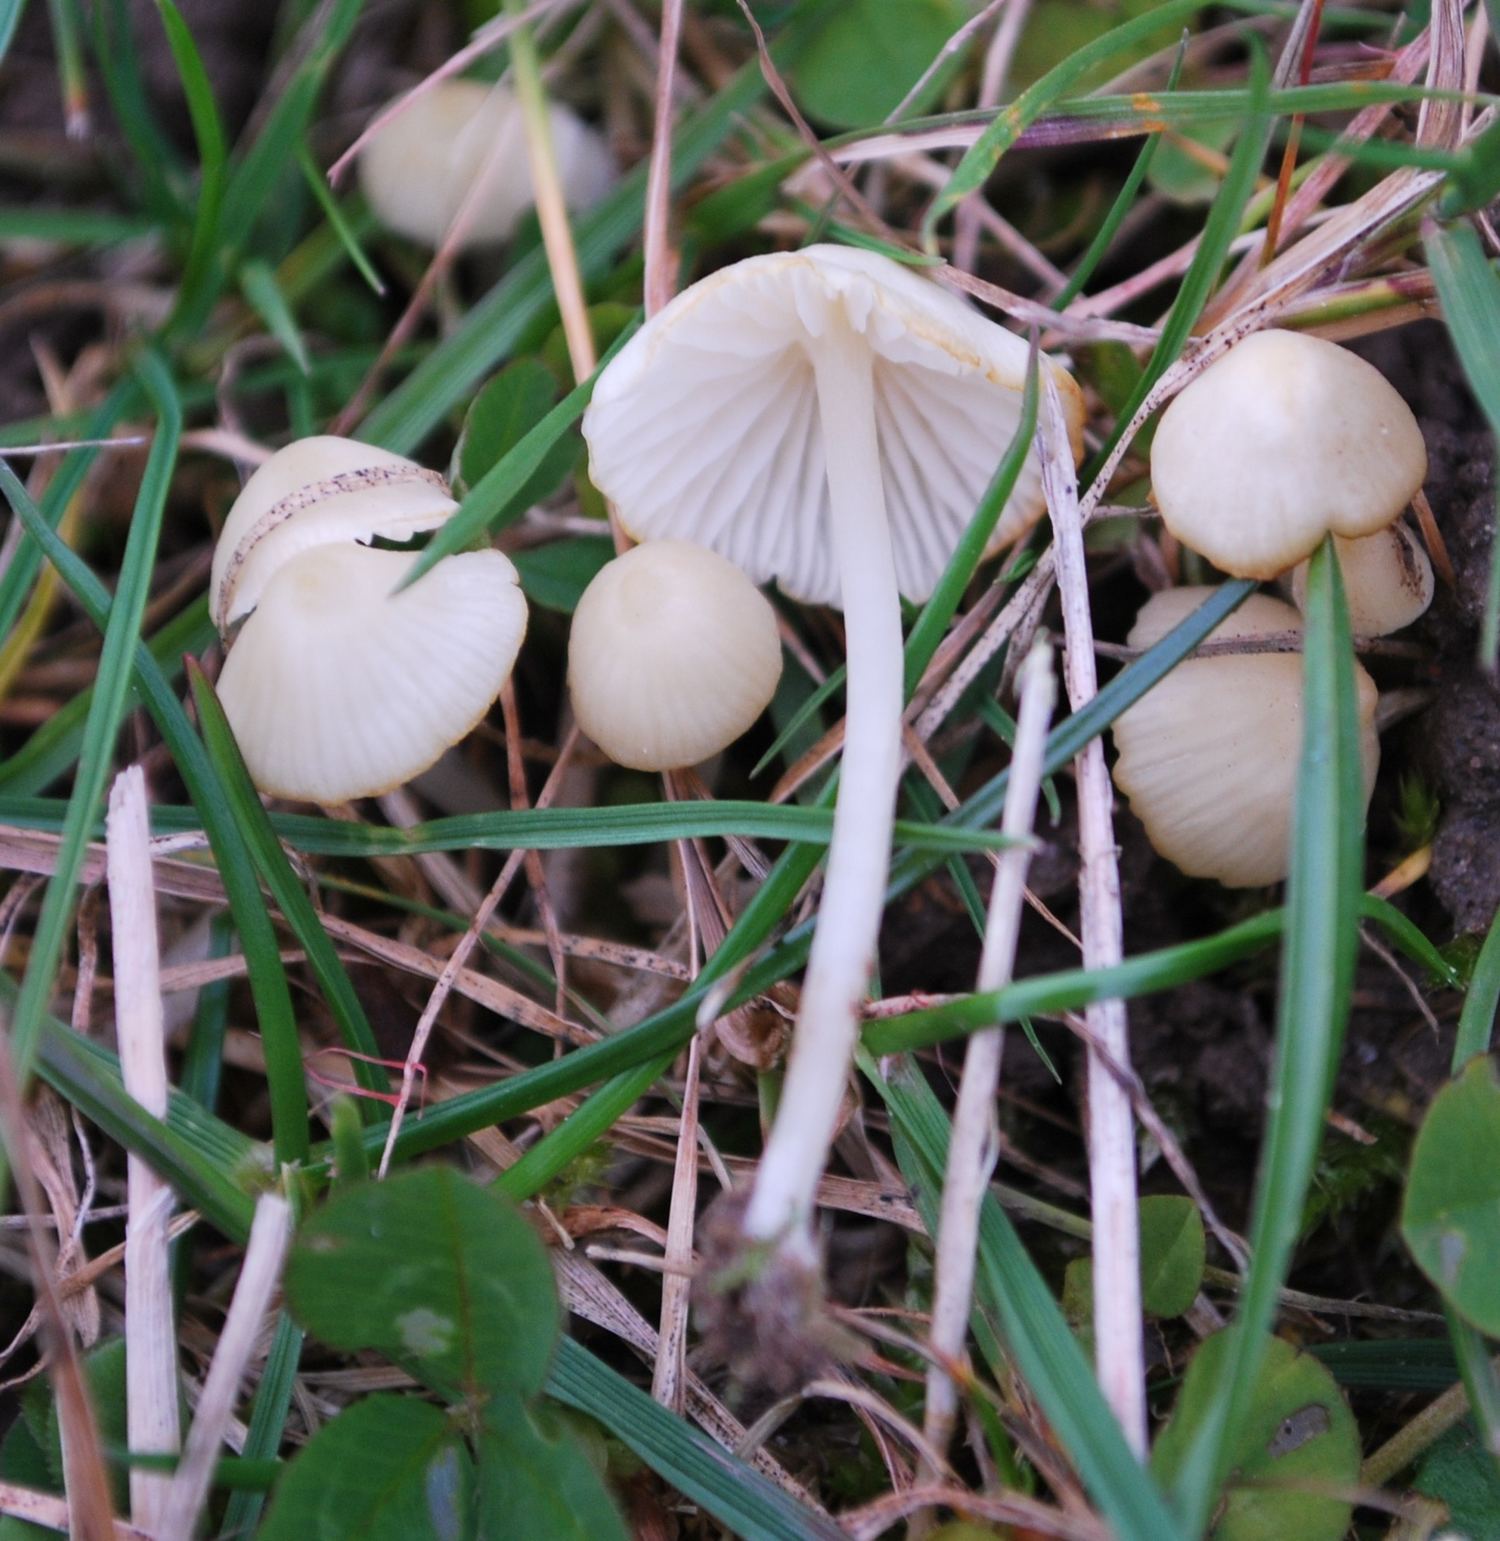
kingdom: Fungi
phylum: Basidiomycota
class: Agaricomycetes
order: Agaricales
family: Mycenaceae
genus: Atheniella
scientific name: Atheniella flavoalba
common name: gulhvid huesvamp
